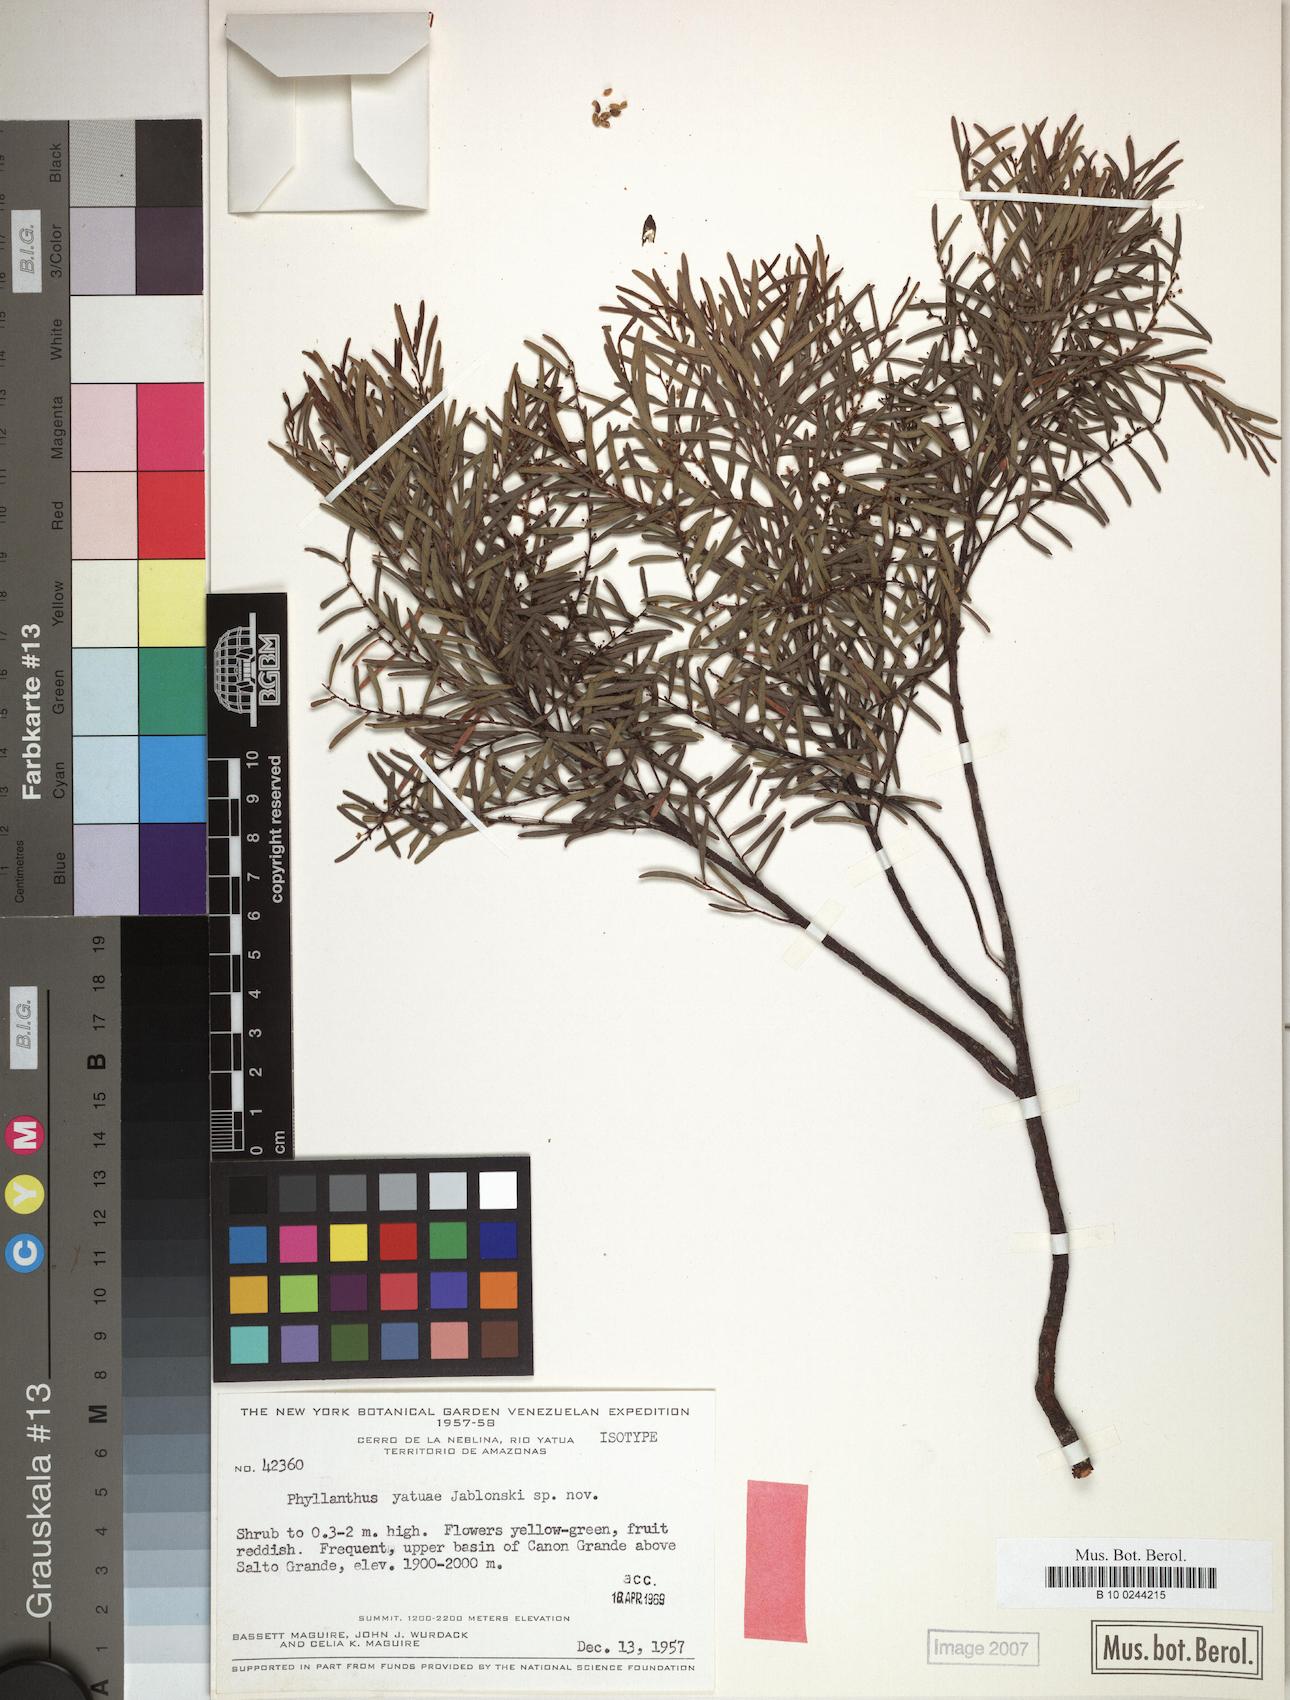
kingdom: Plantae
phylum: Tracheophyta
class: Magnoliopsida
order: Malpighiales
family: Phyllanthaceae
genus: Phyllanthus
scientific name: Phyllanthus
